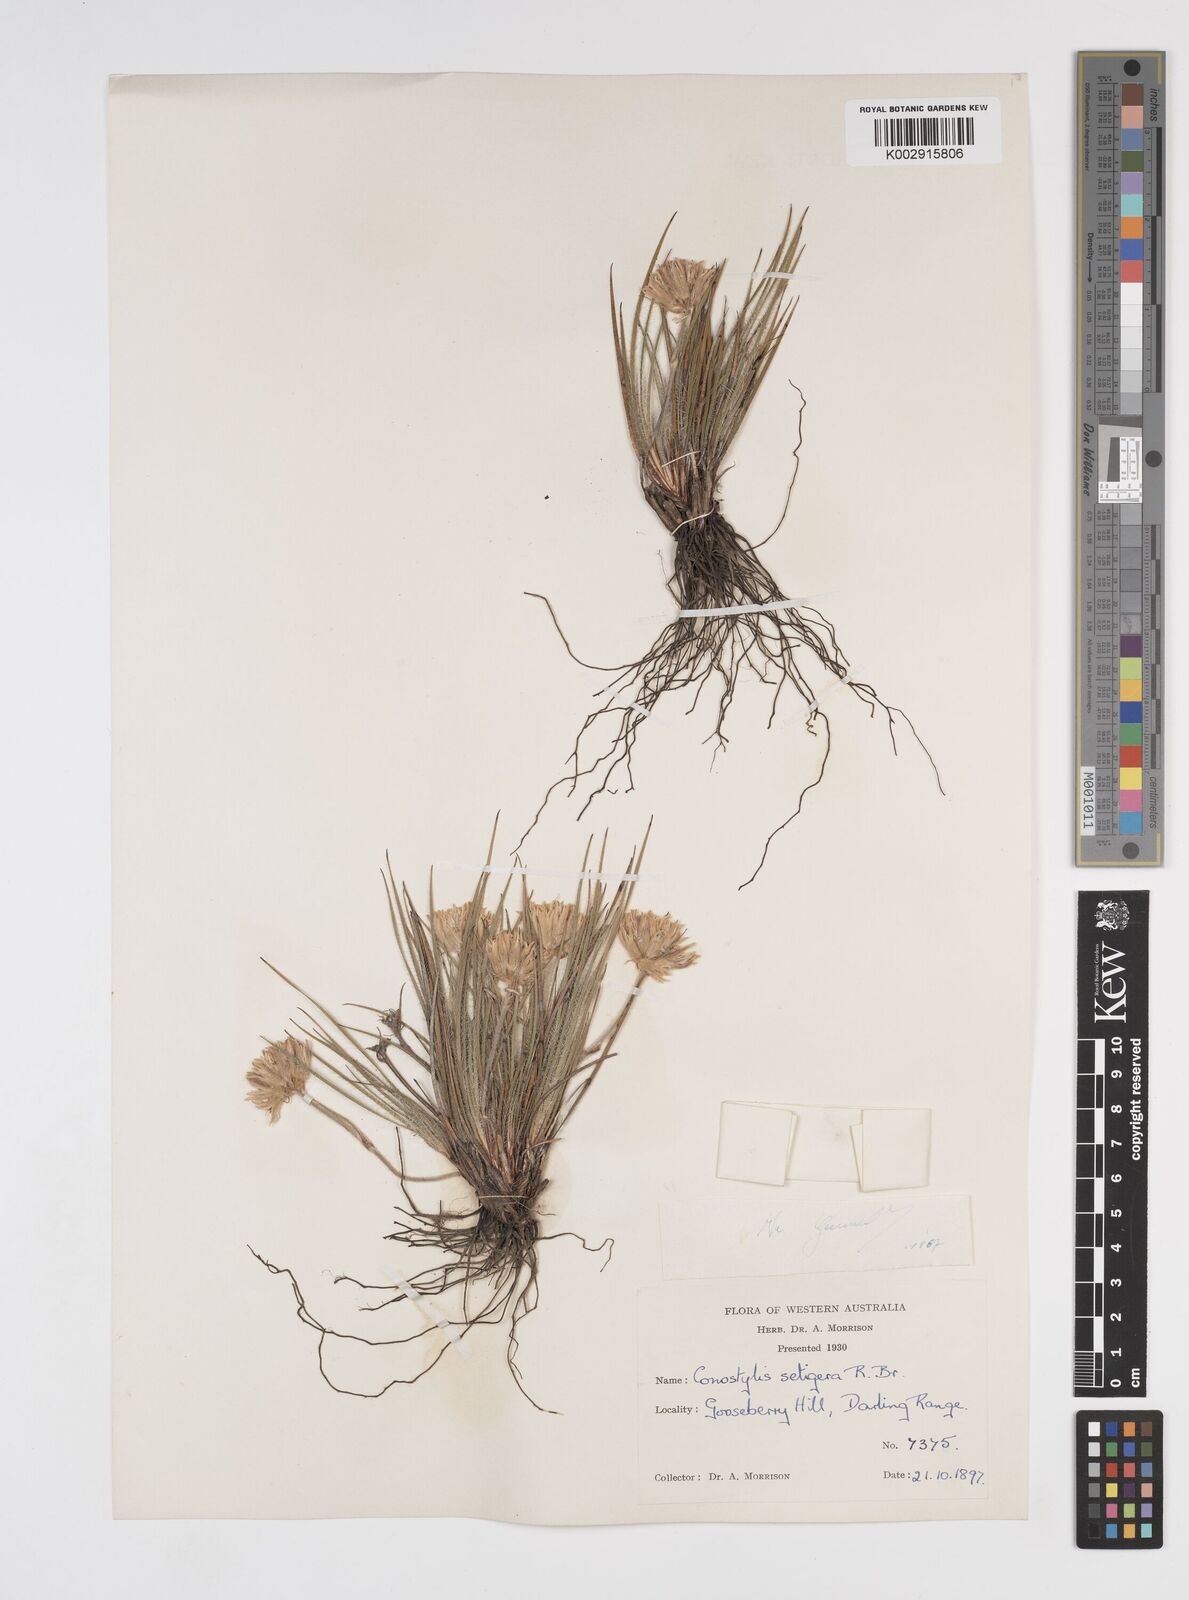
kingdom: Plantae
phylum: Tracheophyta
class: Liliopsida
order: Commelinales
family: Haemodoraceae
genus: Conostylis
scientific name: Conostylis setigera
